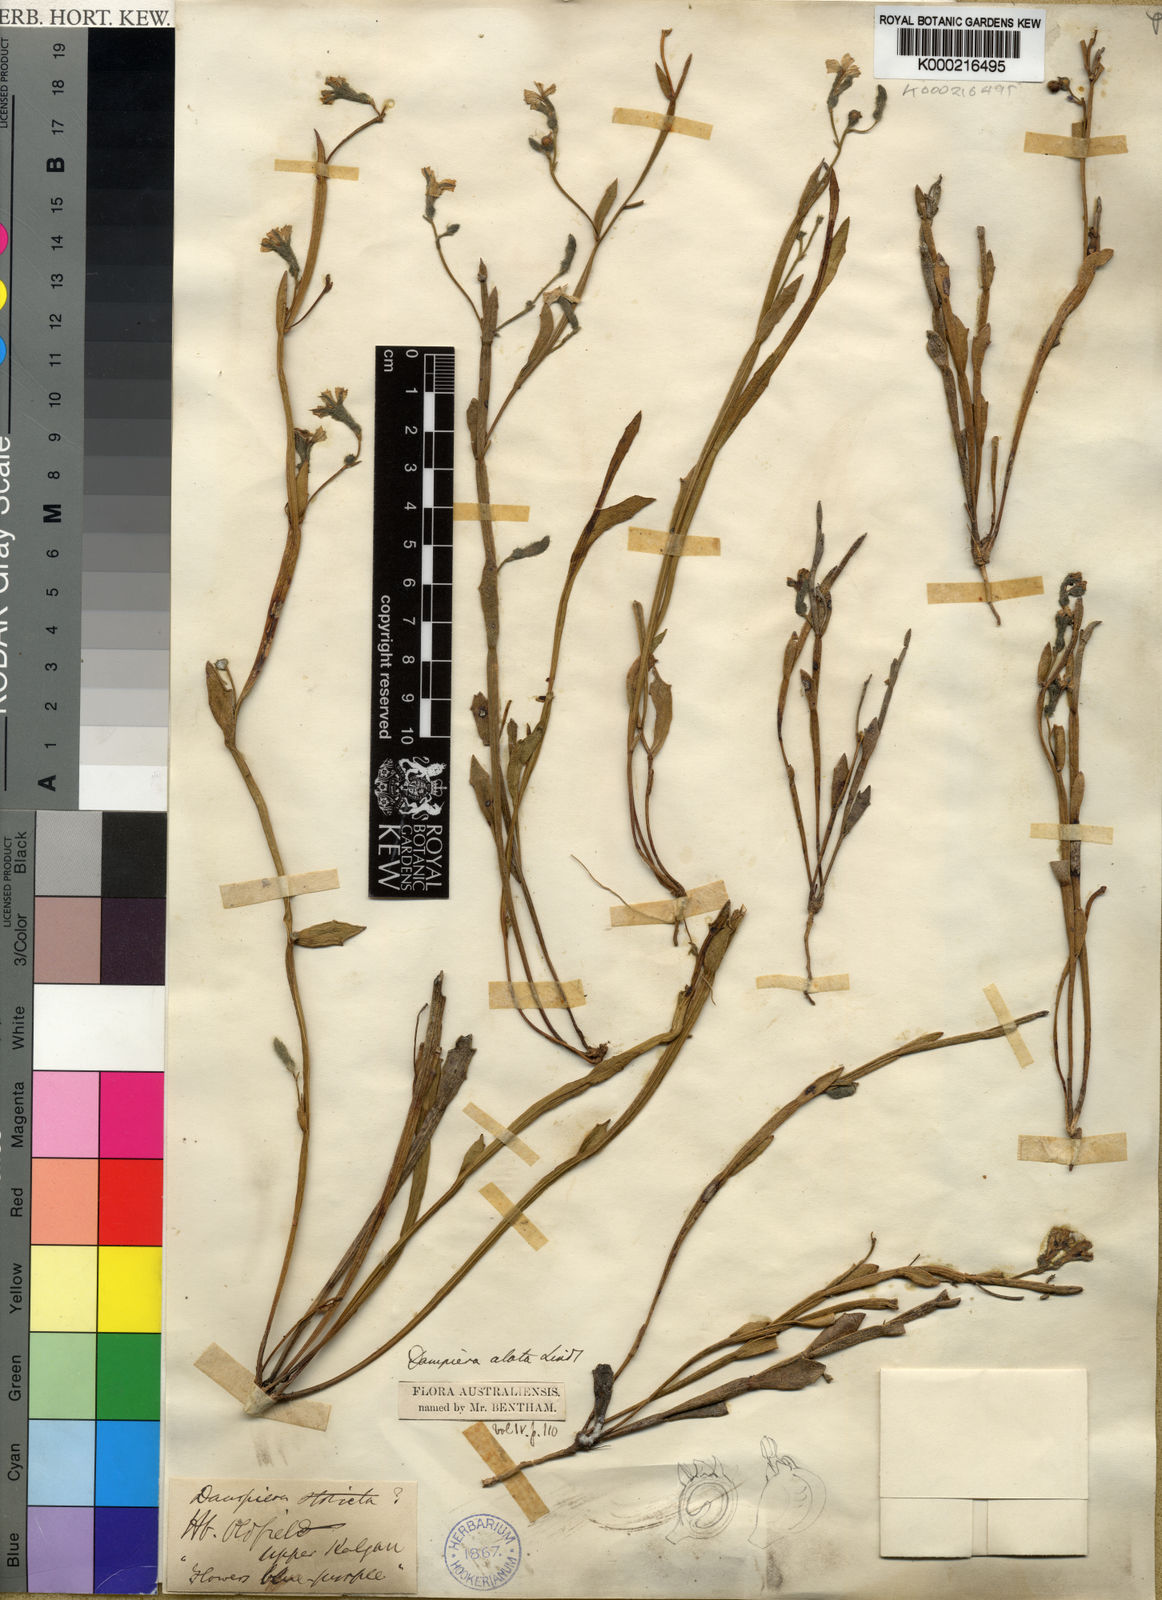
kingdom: Plantae
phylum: Tracheophyta
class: Magnoliopsida
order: Asterales
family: Goodeniaceae
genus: Dampiera
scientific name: Dampiera alata
